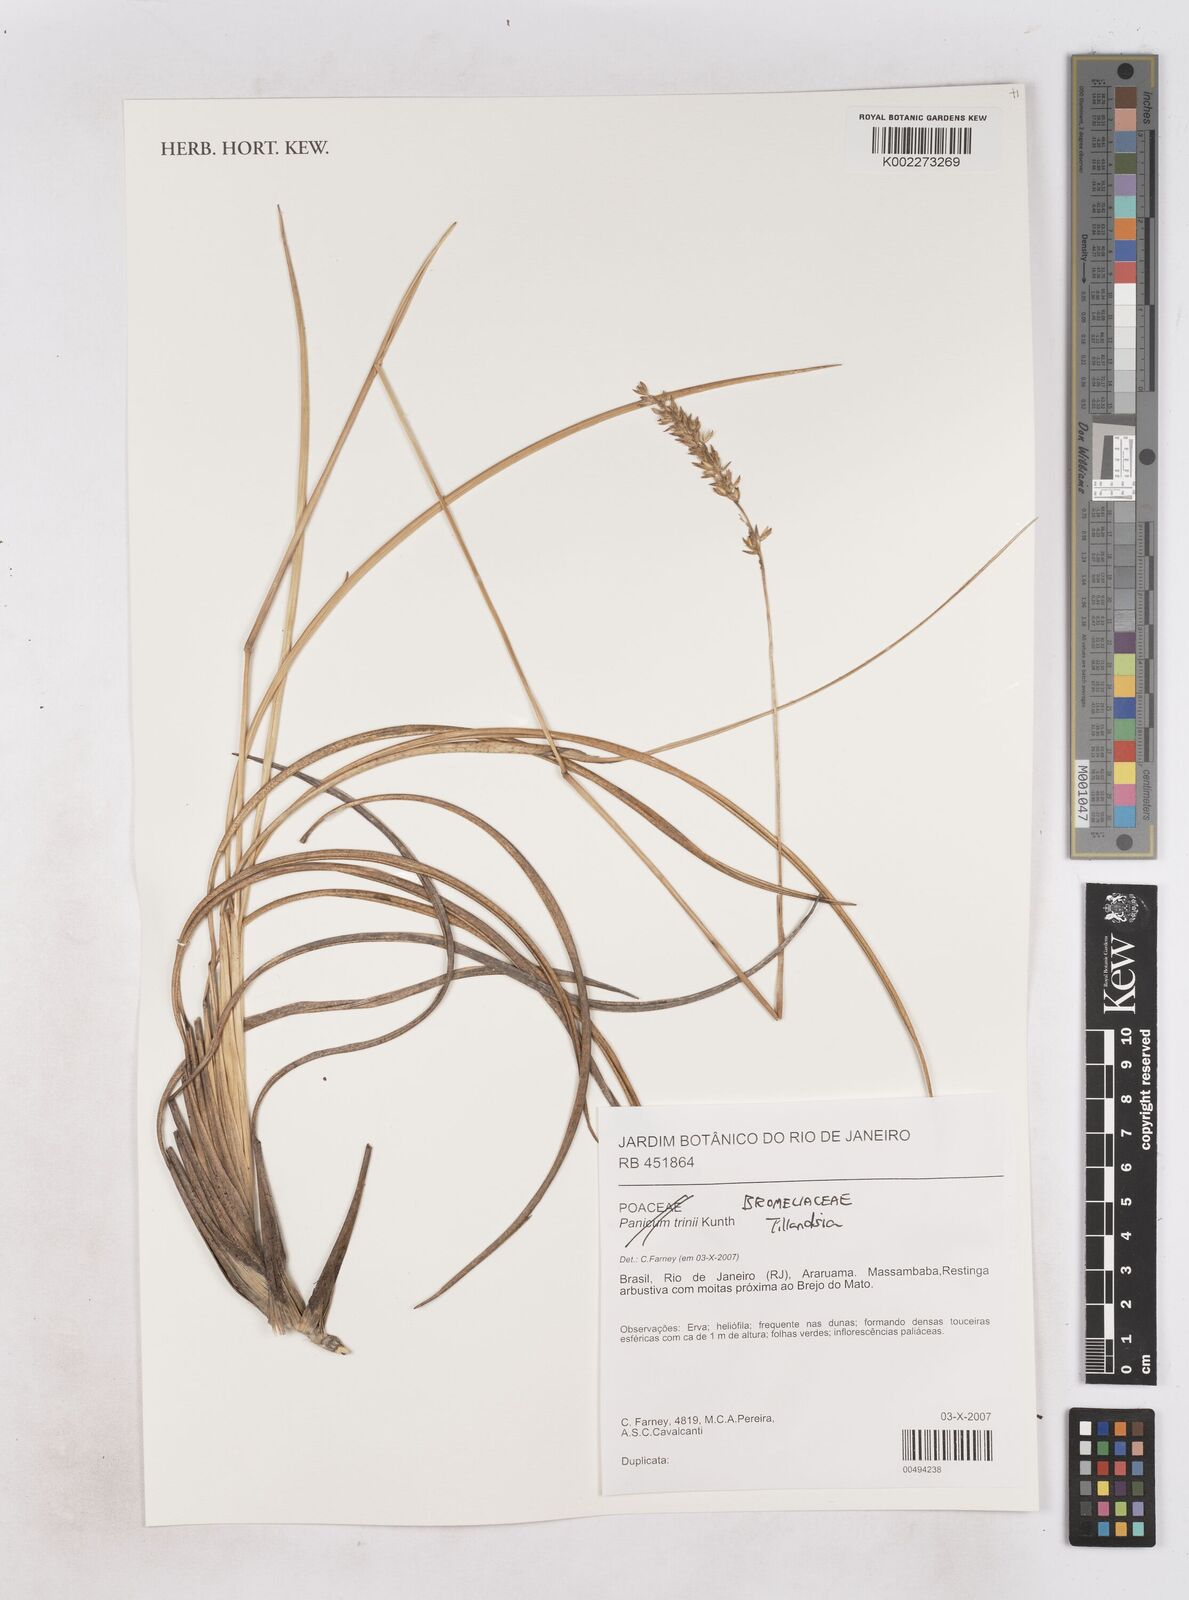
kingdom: Plantae
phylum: Tracheophyta
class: Liliopsida
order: Poales
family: Bromeliaceae
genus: Tillandsia
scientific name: Tillandsia
